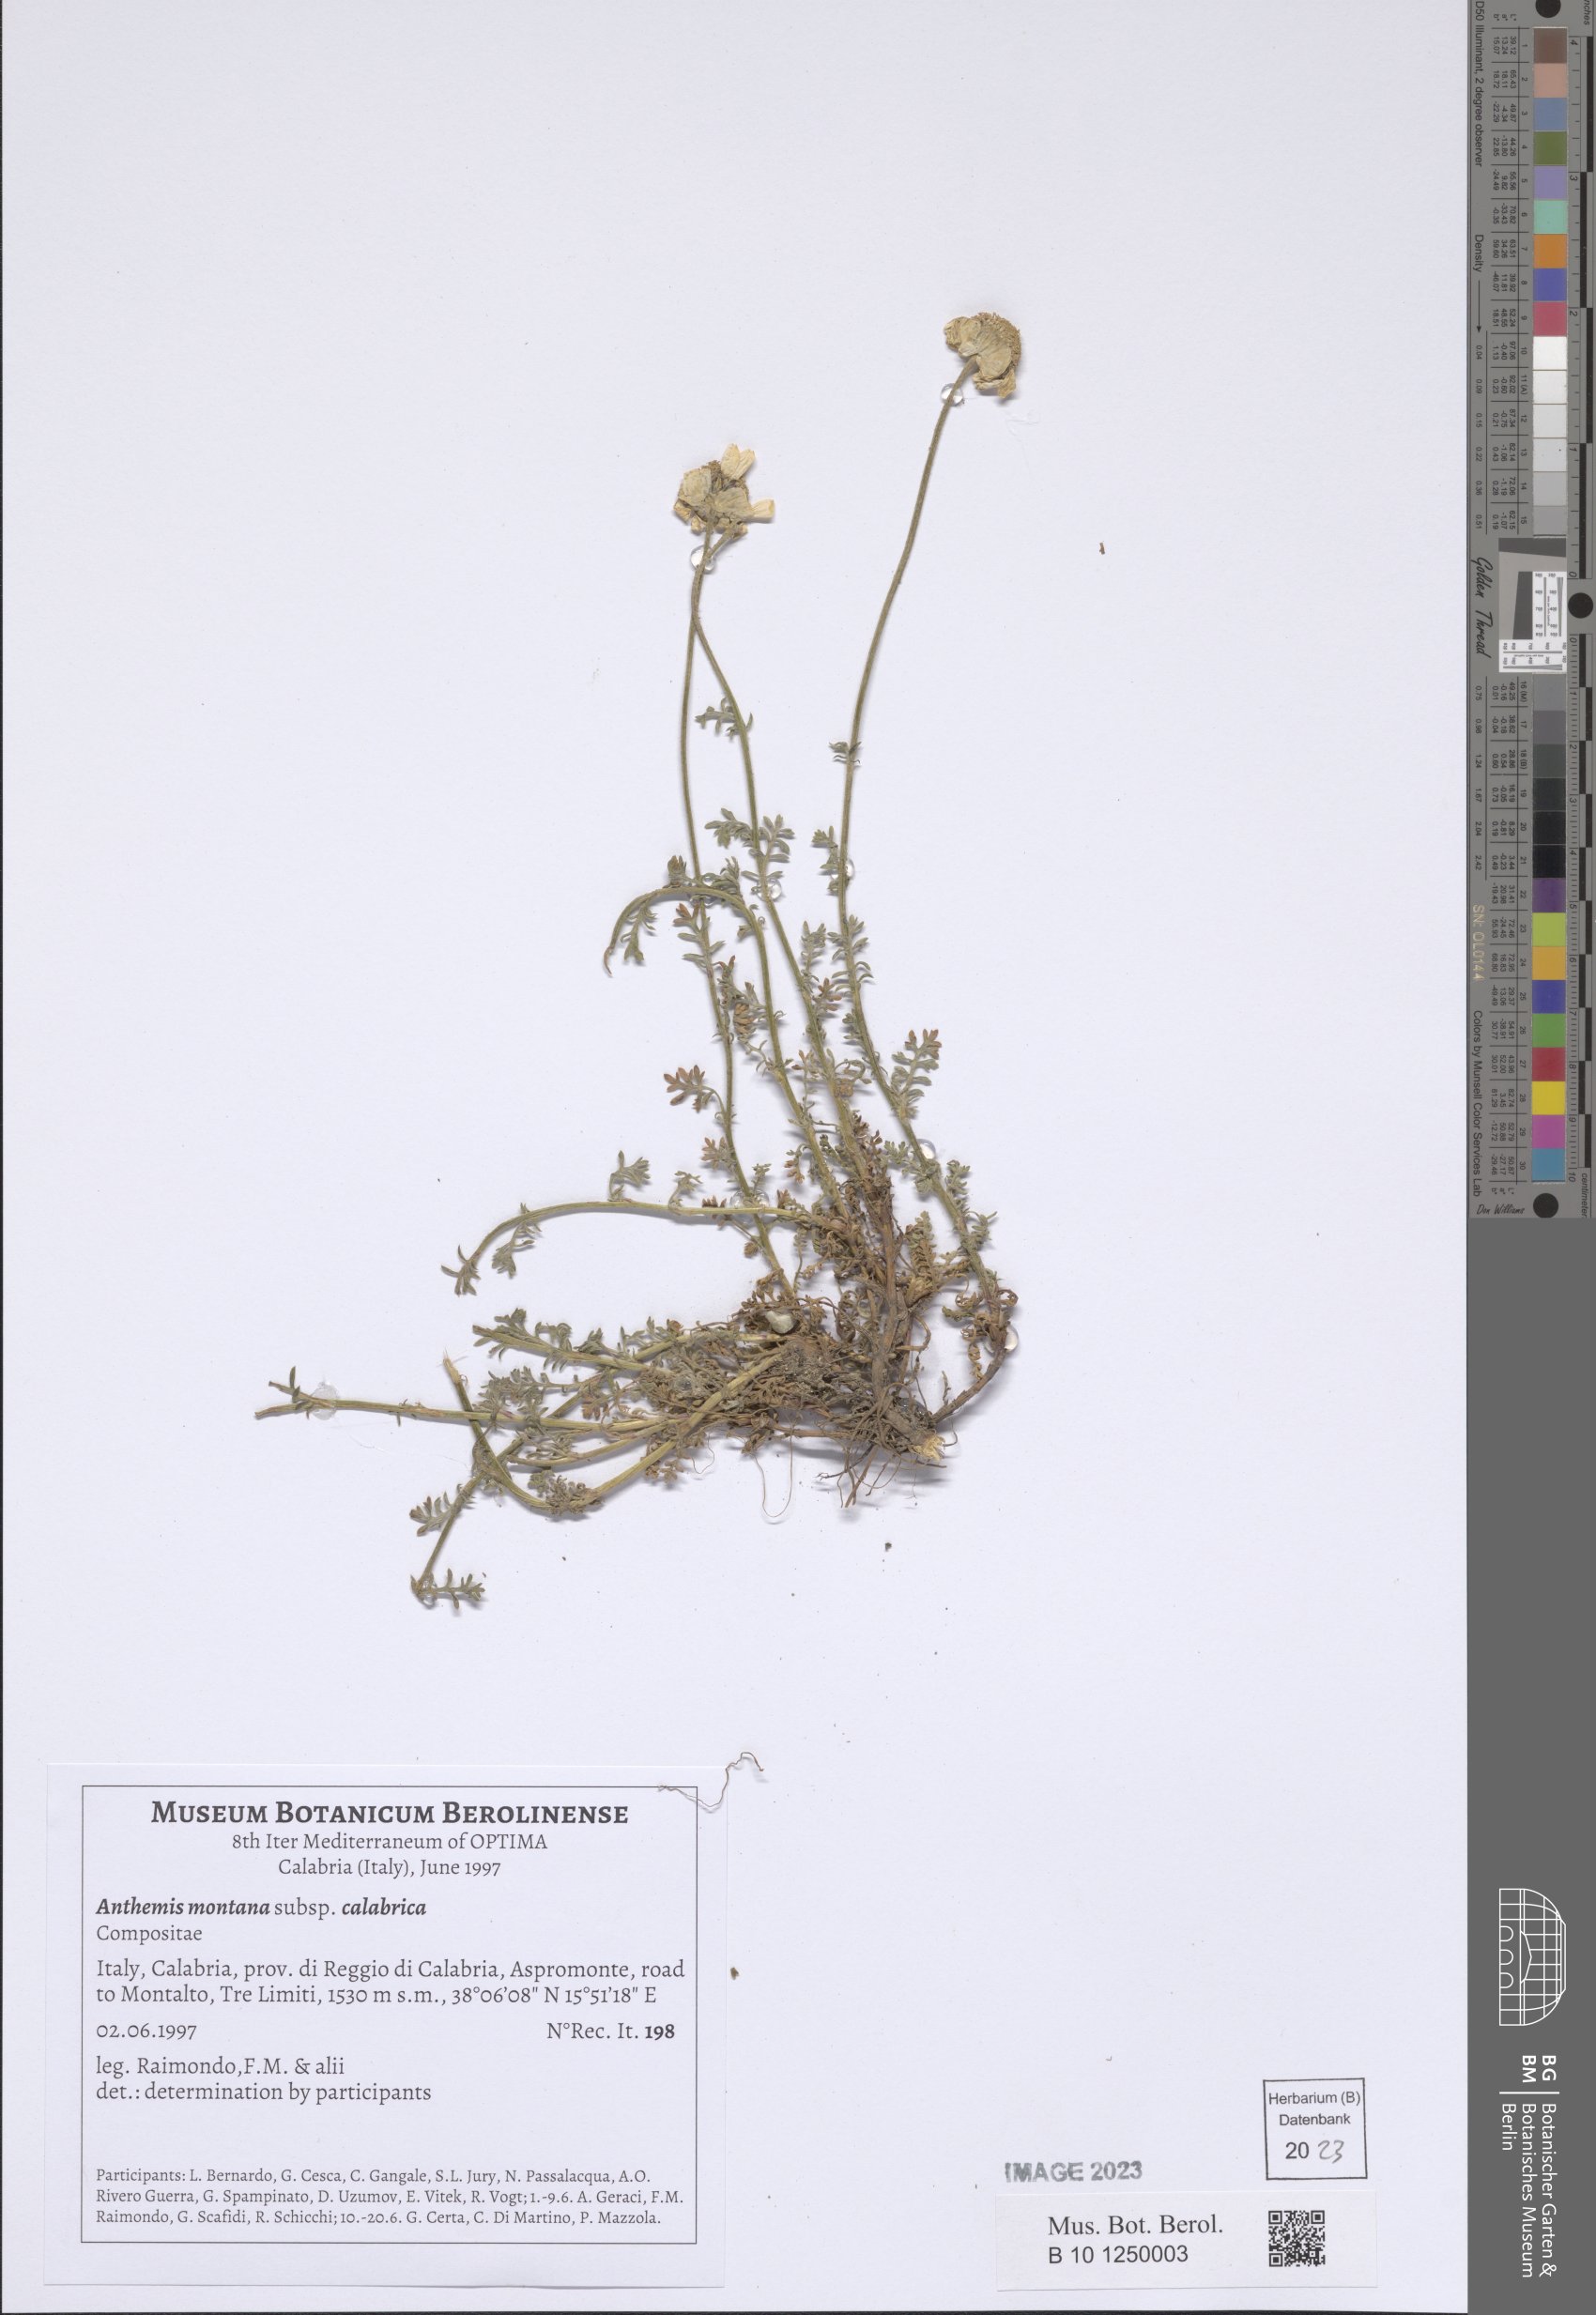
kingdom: Plantae
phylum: Tracheophyta
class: Magnoliopsida
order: Asterales
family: Asteraceae
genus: Anthemis
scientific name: Anthemis cretica
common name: Mountain dog-daisy
